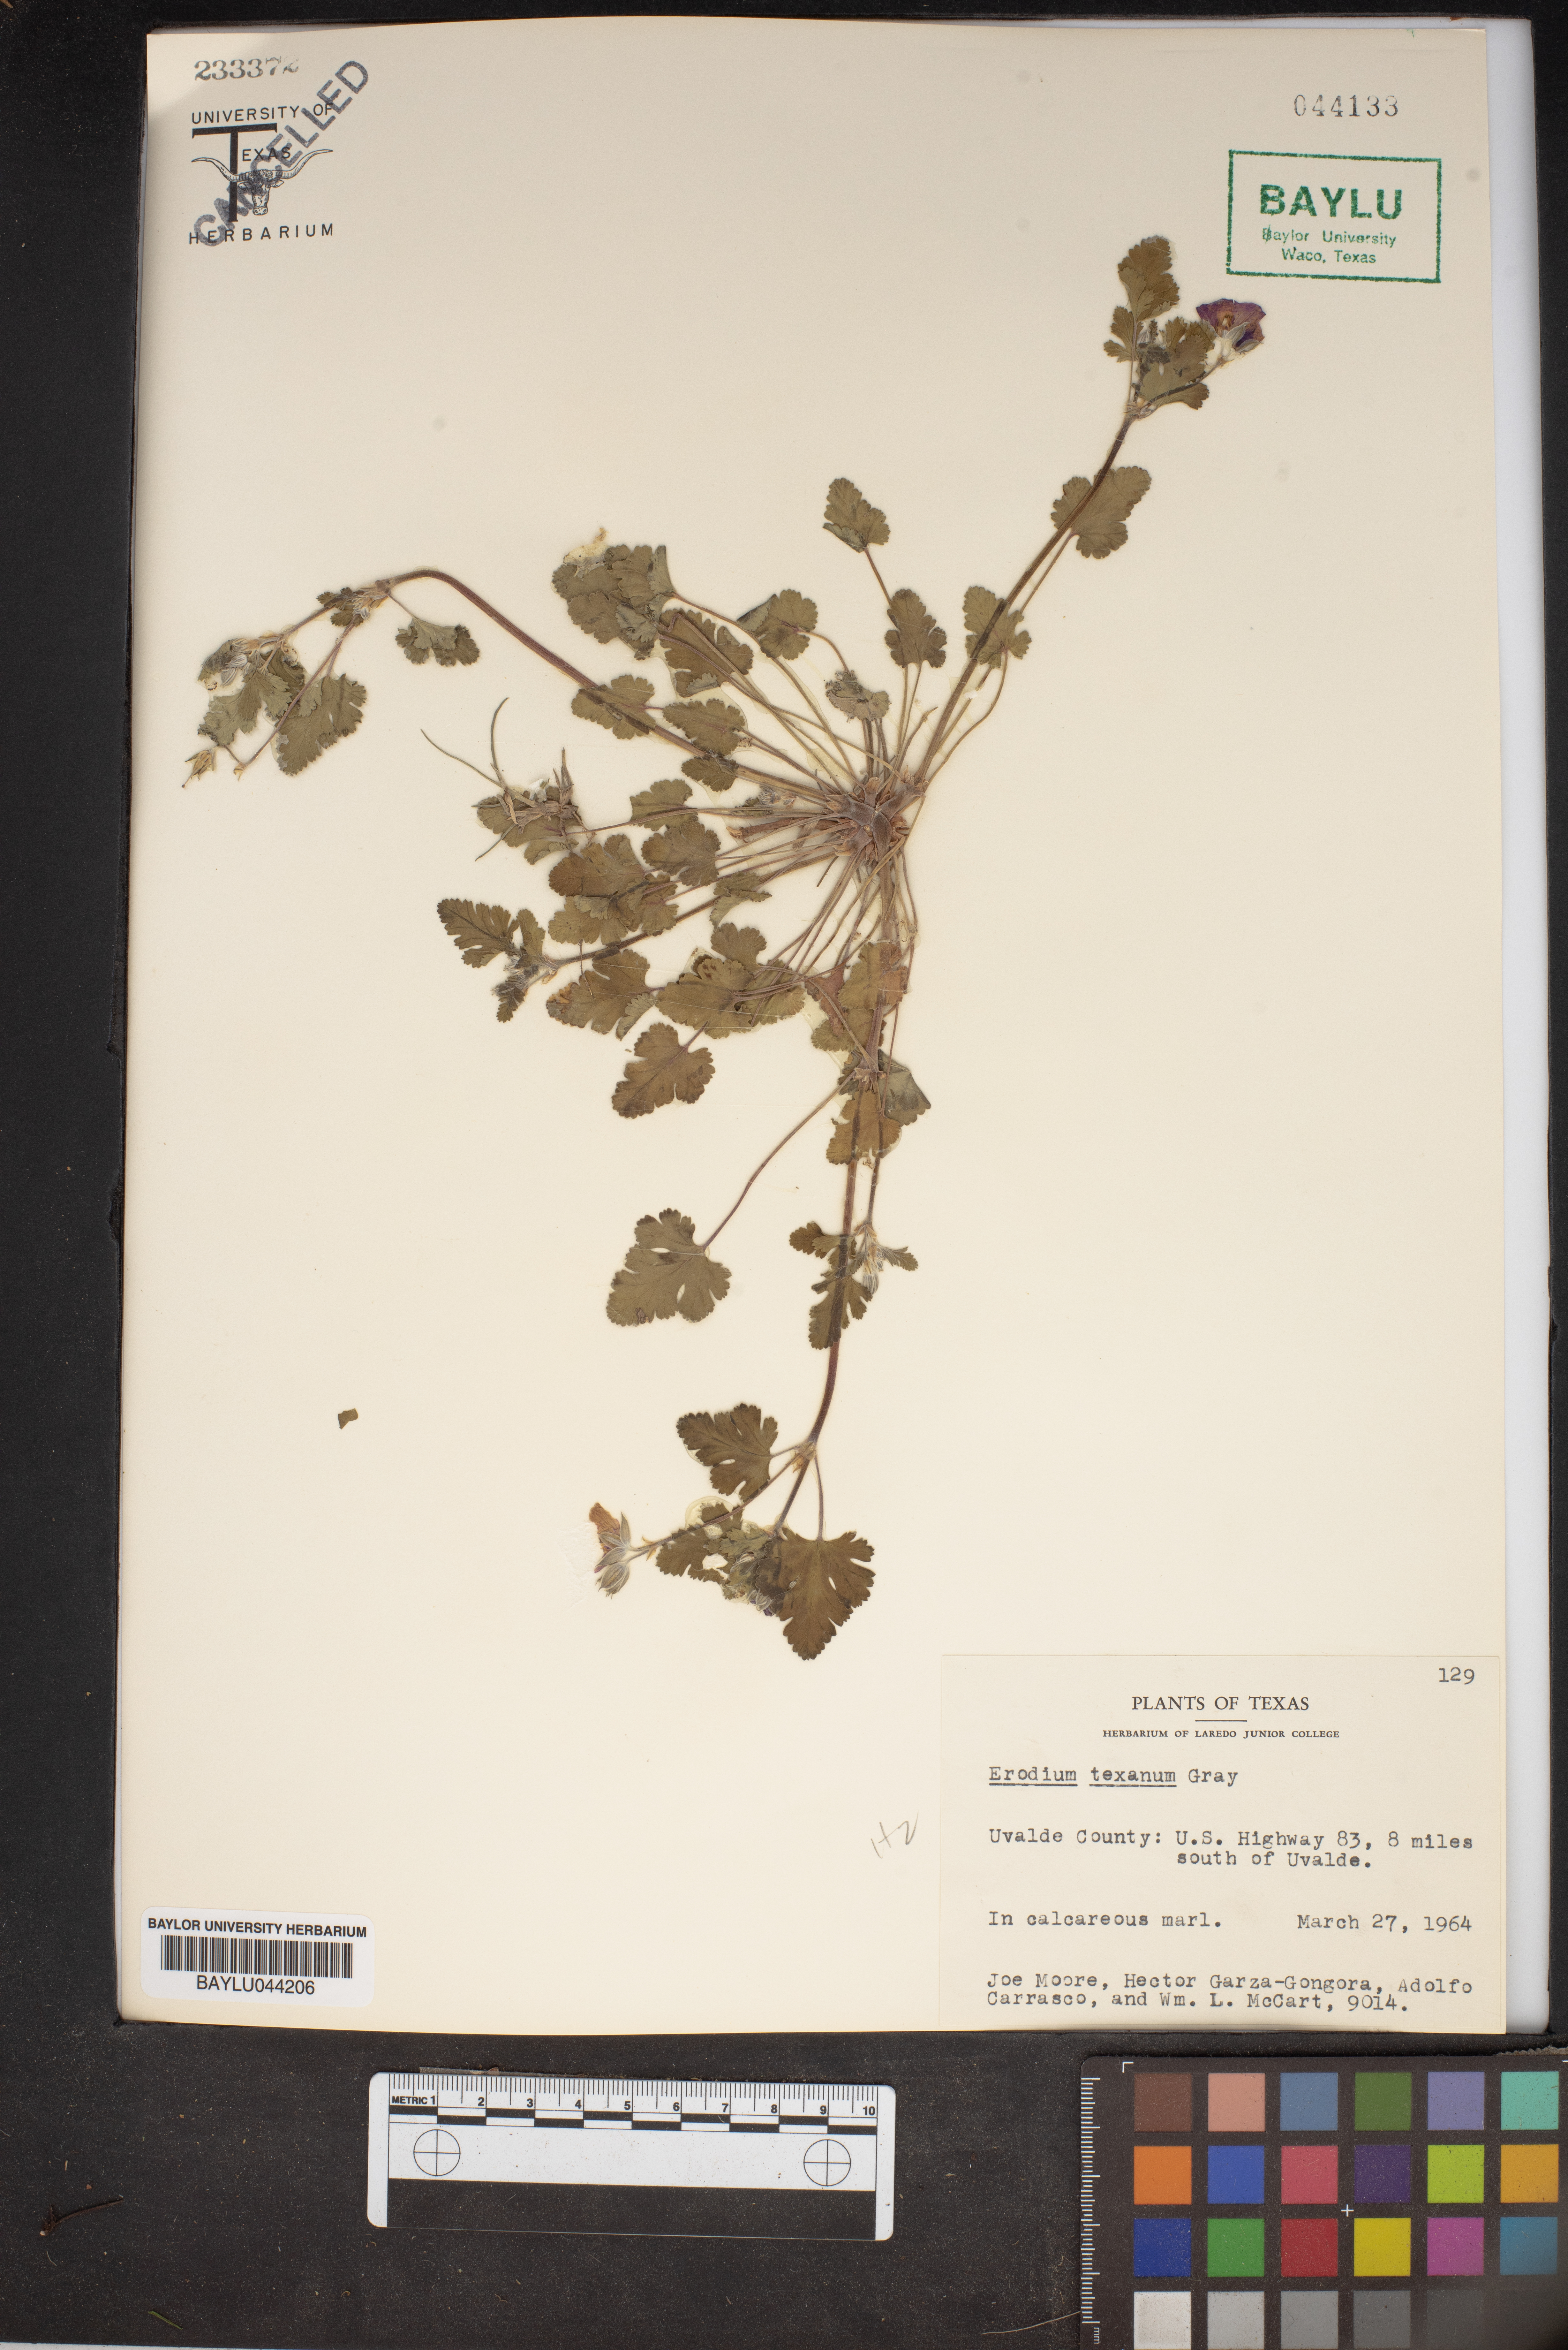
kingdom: Plantae
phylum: Tracheophyta
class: Magnoliopsida
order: Geraniales
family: Geraniaceae
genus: Erodium
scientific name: Erodium texanum
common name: Texas stork's-bill
